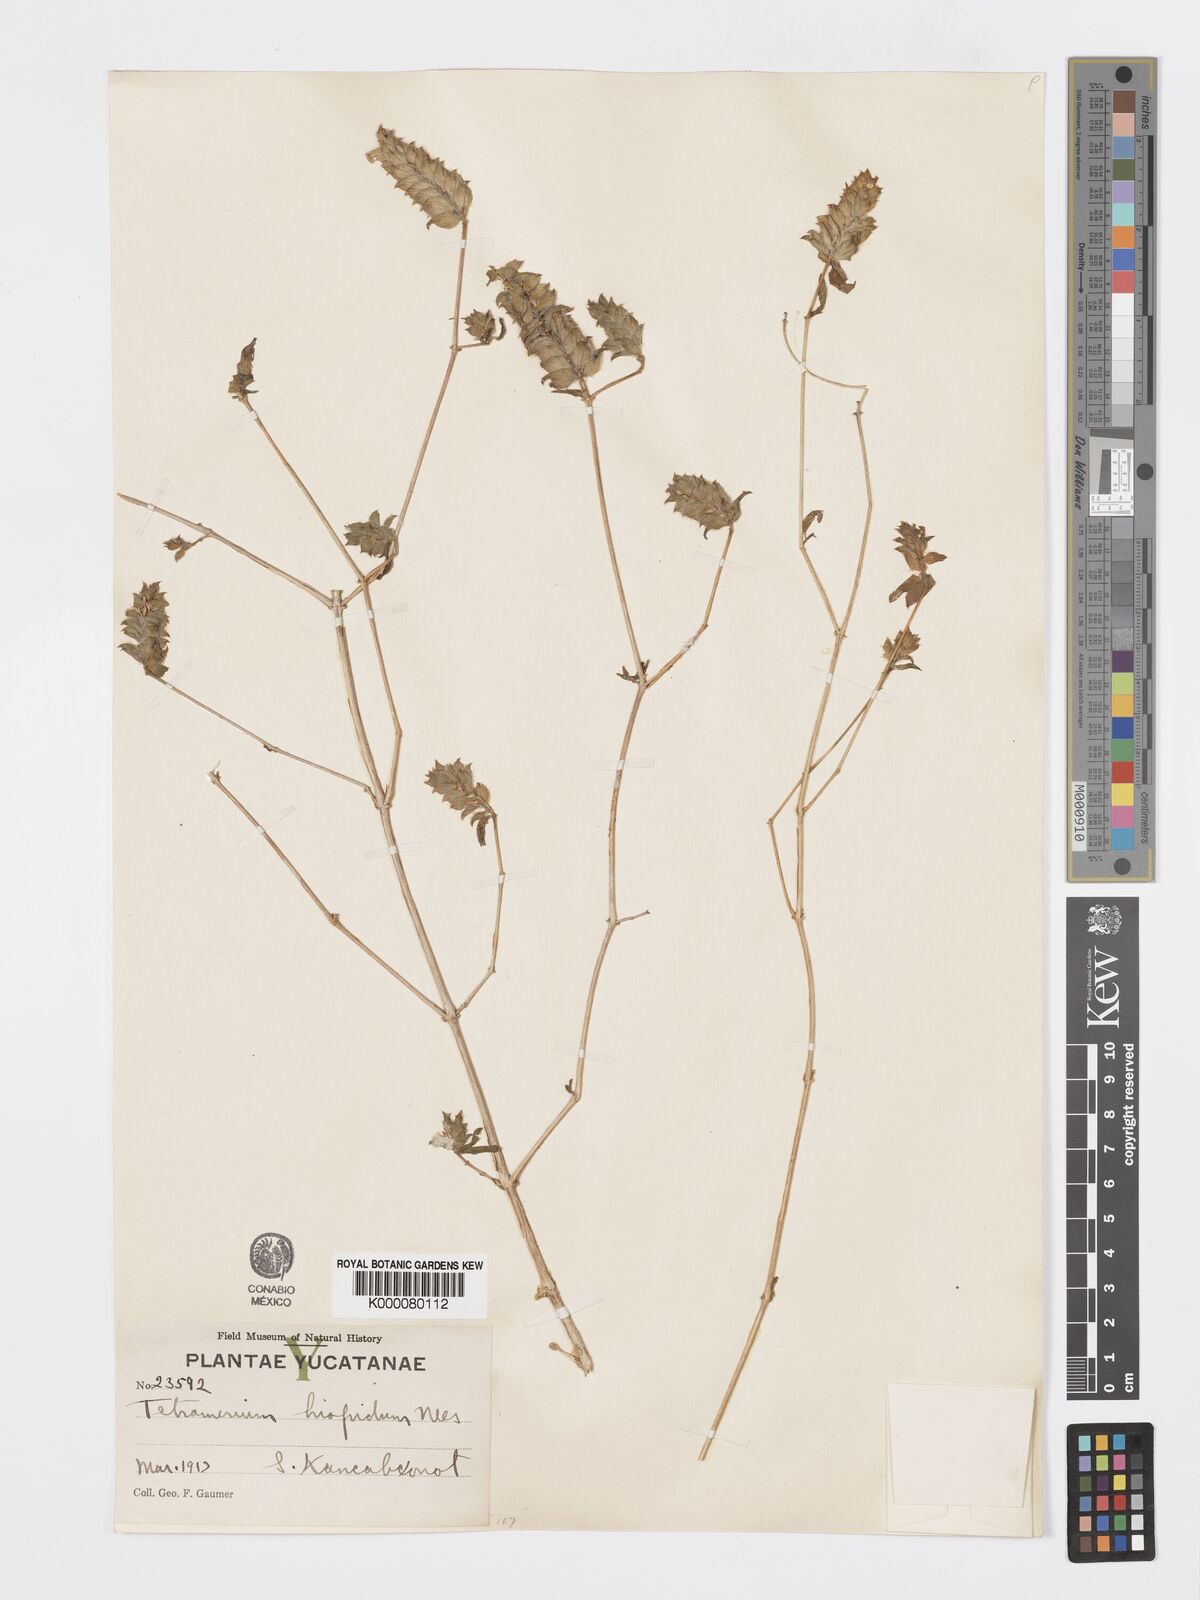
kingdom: Plantae
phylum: Tracheophyta
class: Magnoliopsida
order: Lamiales
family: Acanthaceae
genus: Tetramerium
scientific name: Tetramerium nervosum
